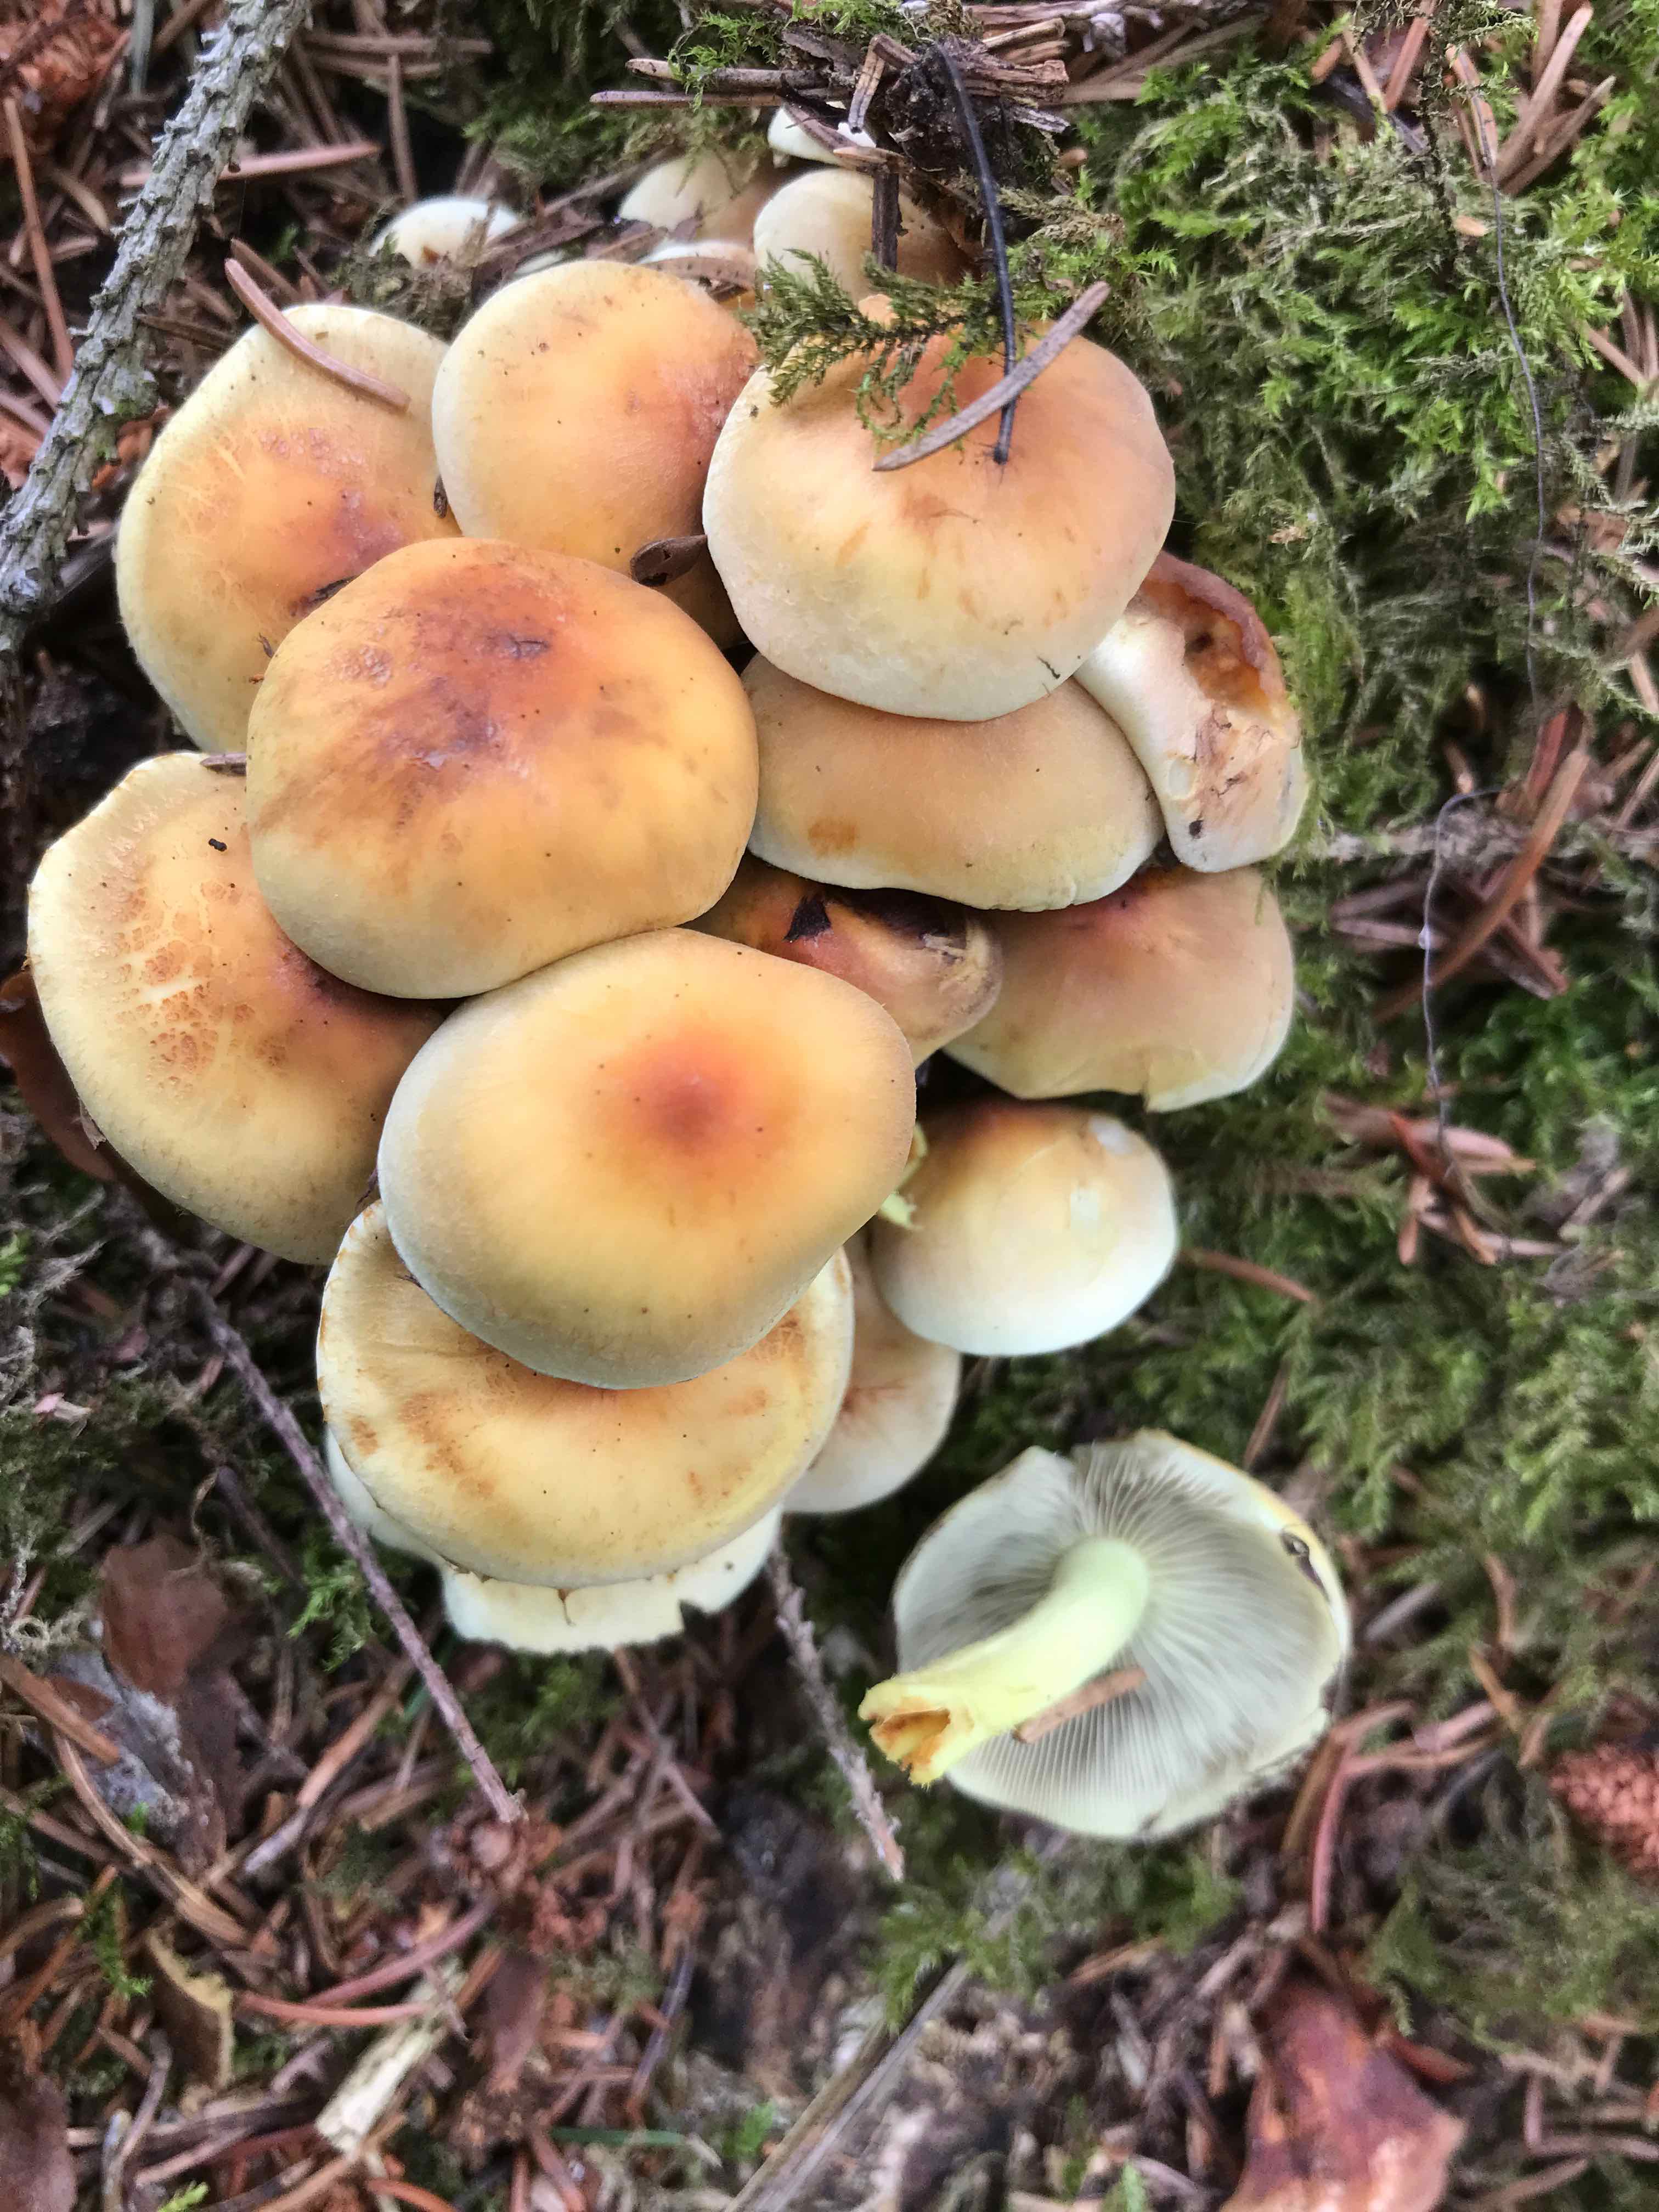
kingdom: Fungi
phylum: Basidiomycota
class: Agaricomycetes
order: Agaricales
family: Strophariaceae
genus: Hypholoma
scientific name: Hypholoma fasciculare
